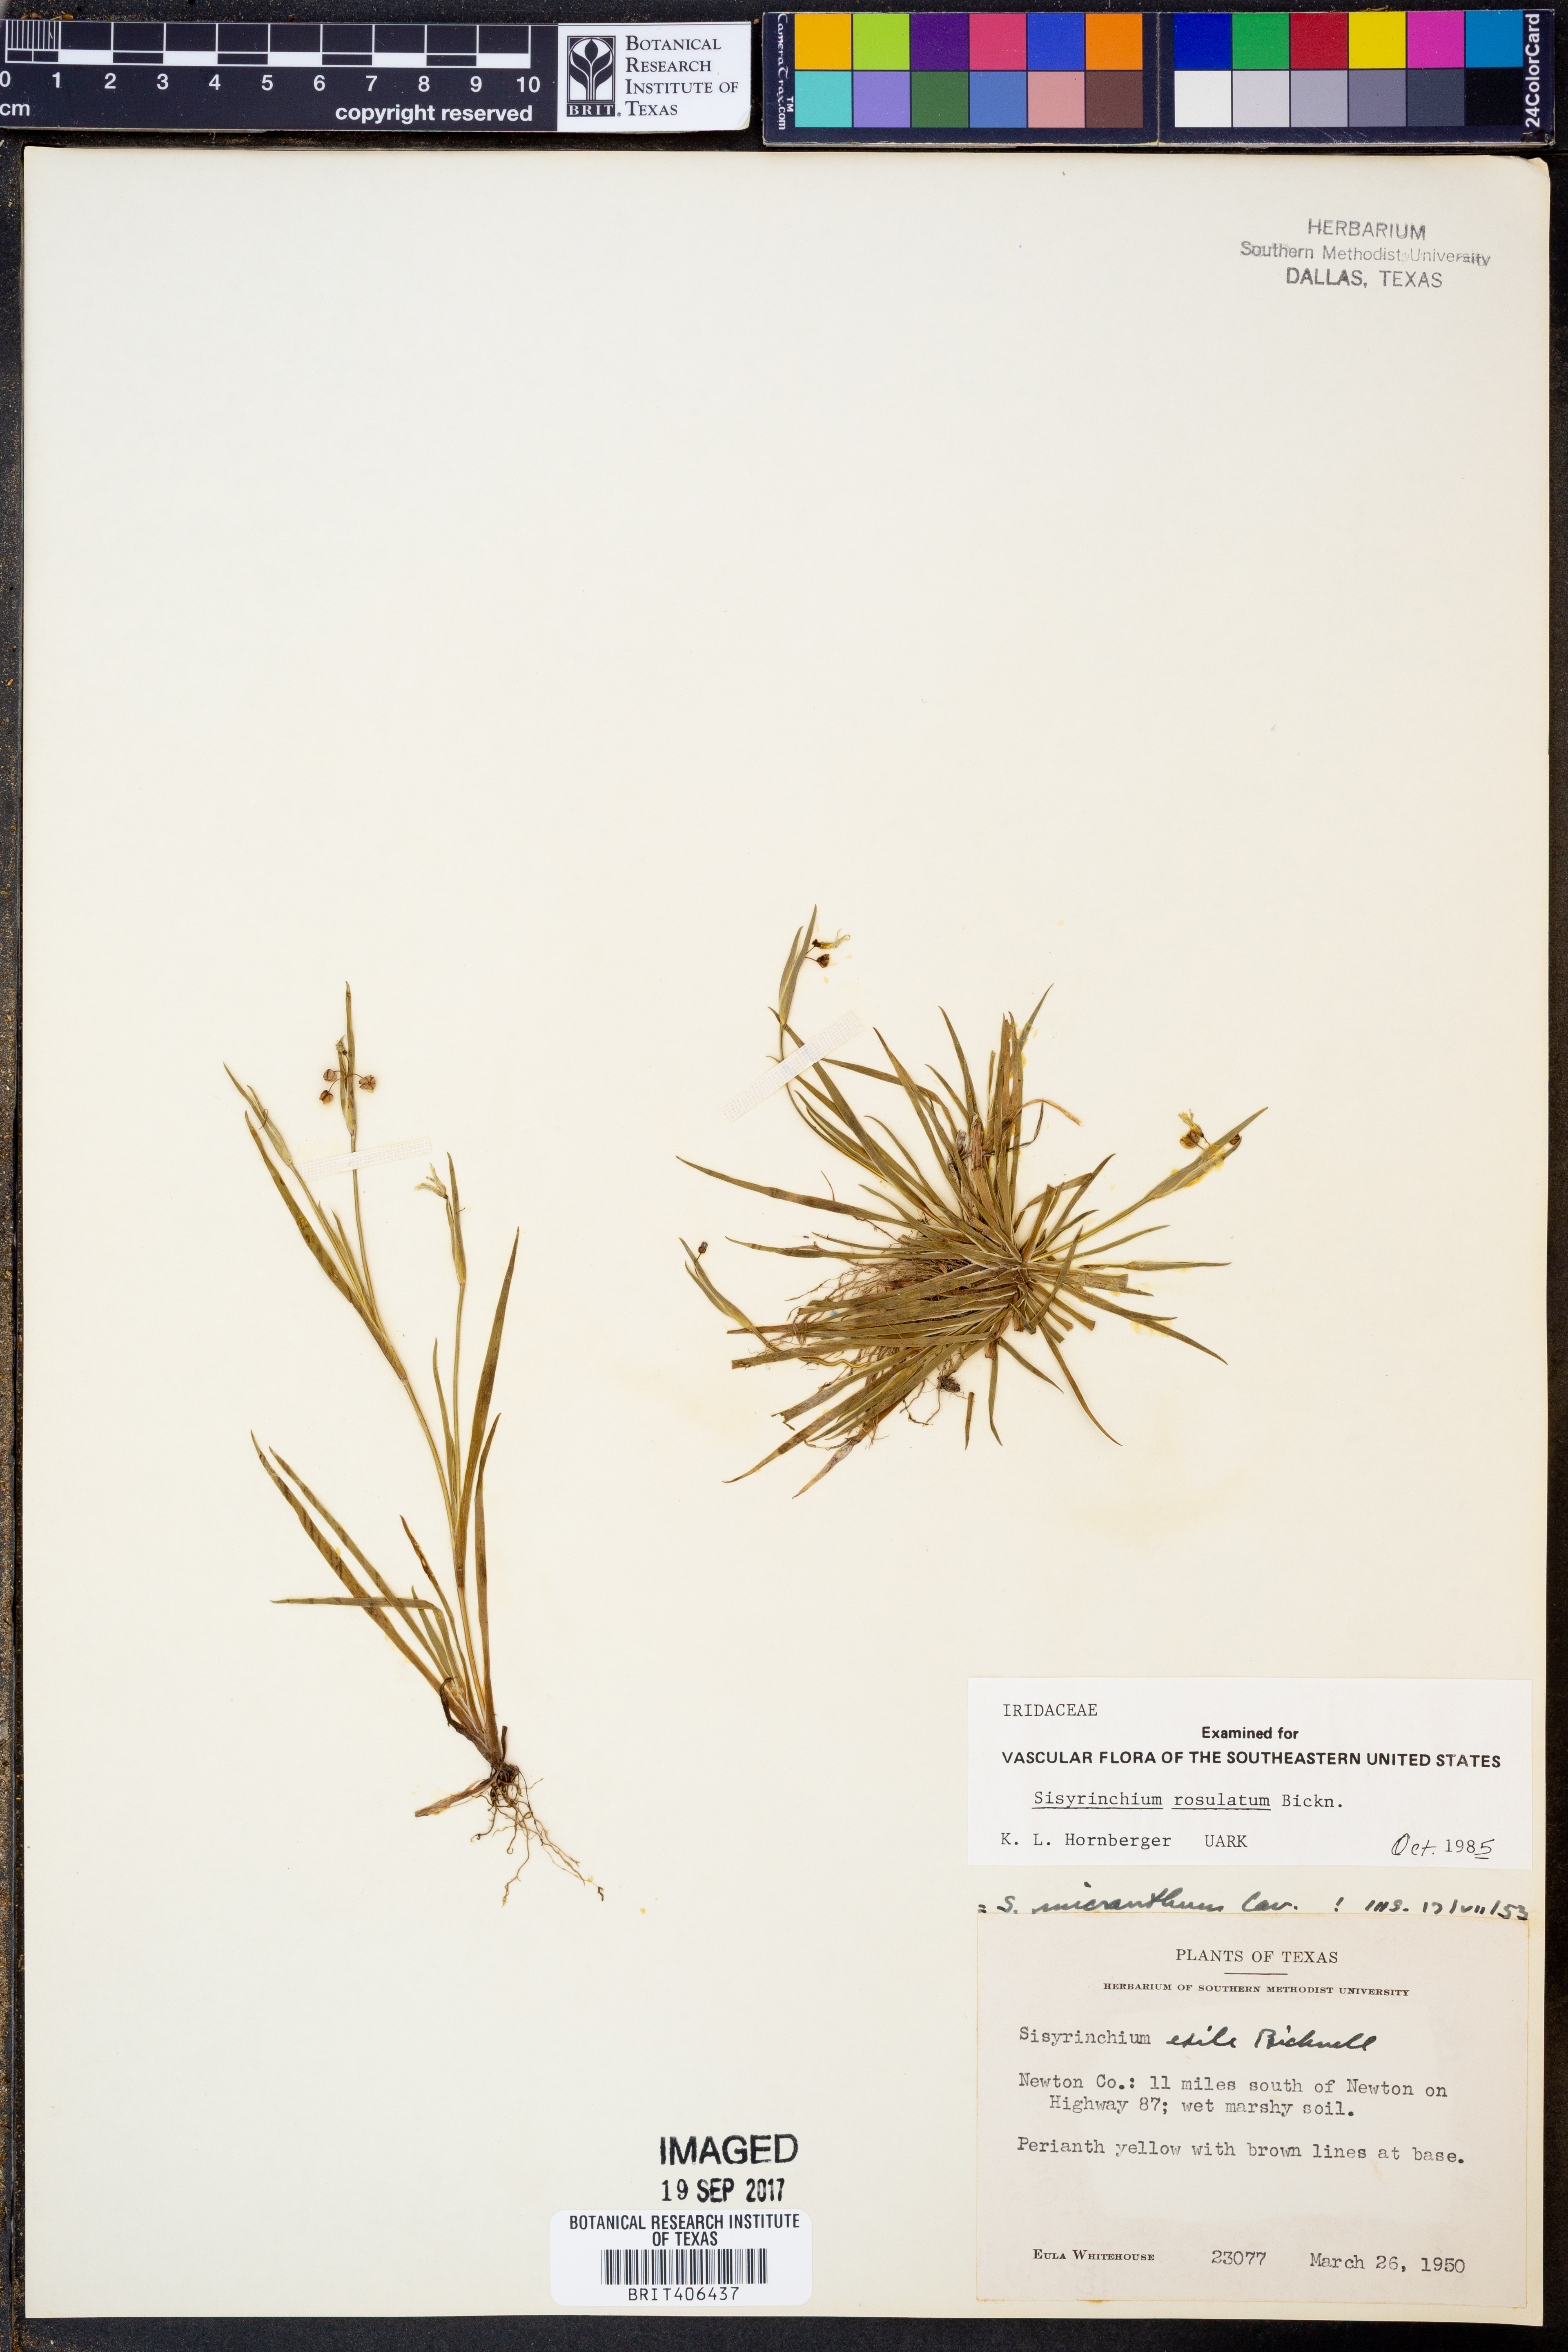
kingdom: Plantae
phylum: Tracheophyta
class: Liliopsida
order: Asparagales
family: Iridaceae
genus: Sisyrinchium
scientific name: Sisyrinchium rosulatum
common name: Annual blue-eyed grass
